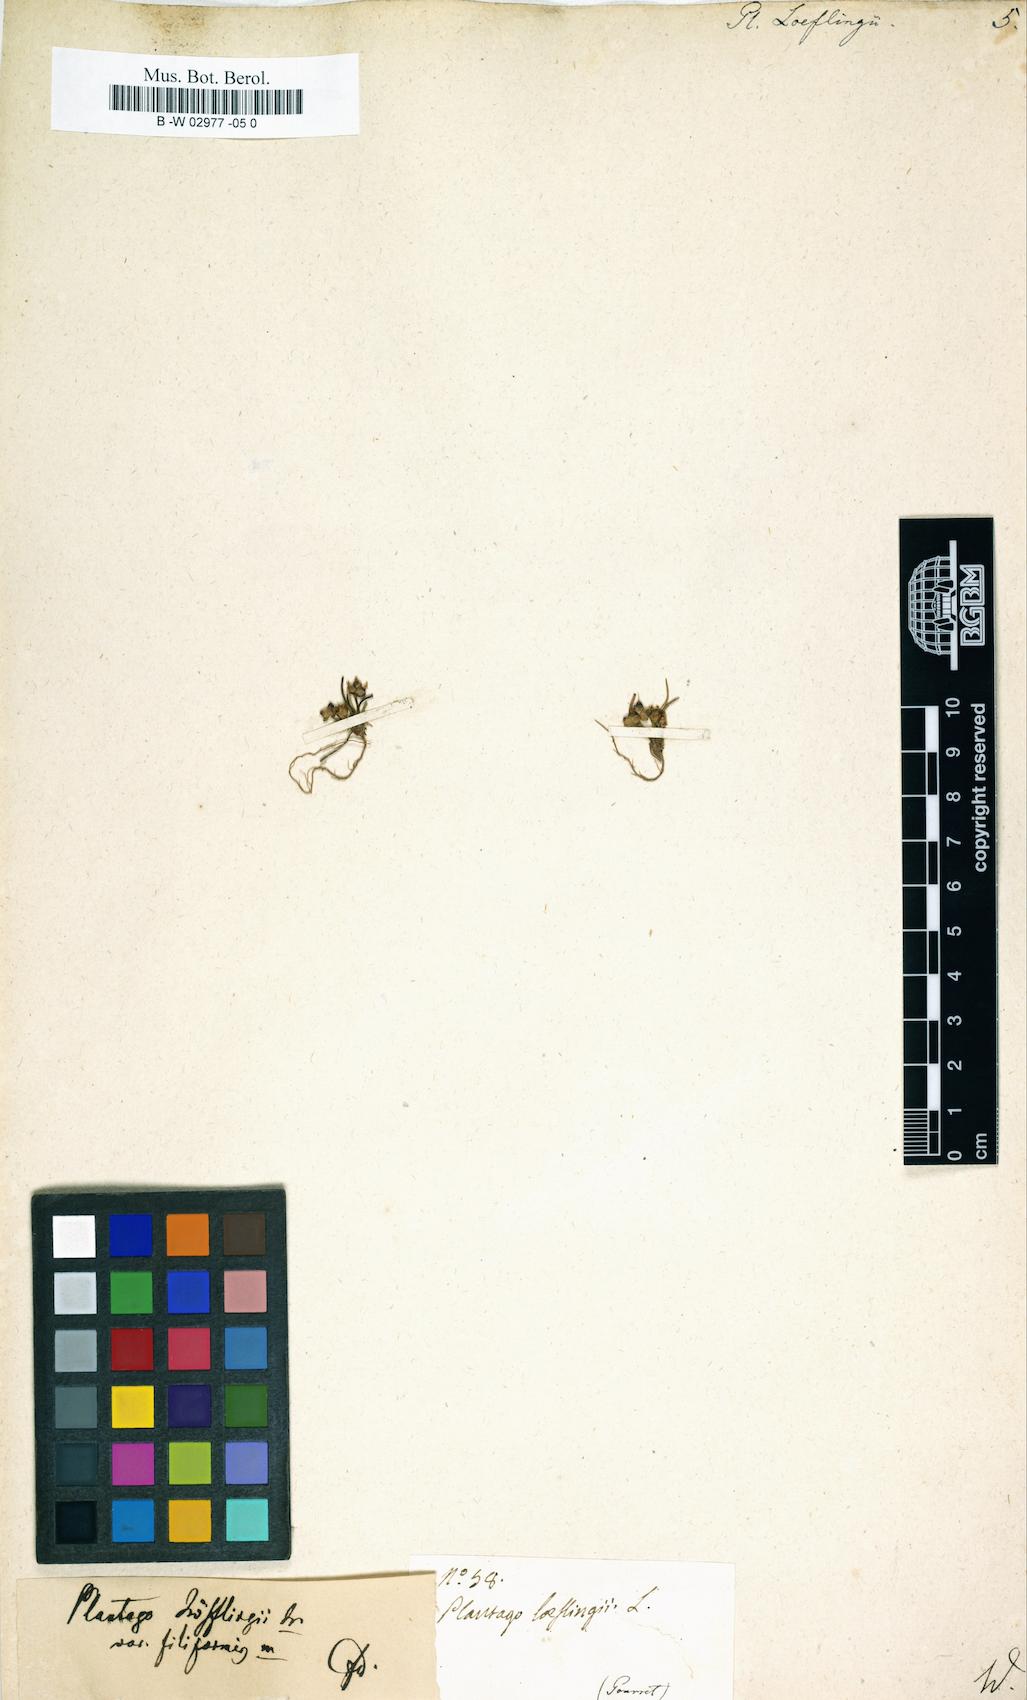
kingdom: Plantae
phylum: Tracheophyta
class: Magnoliopsida
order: Lamiales
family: Plantaginaceae
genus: Plantago
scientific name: Plantago loeflingii
